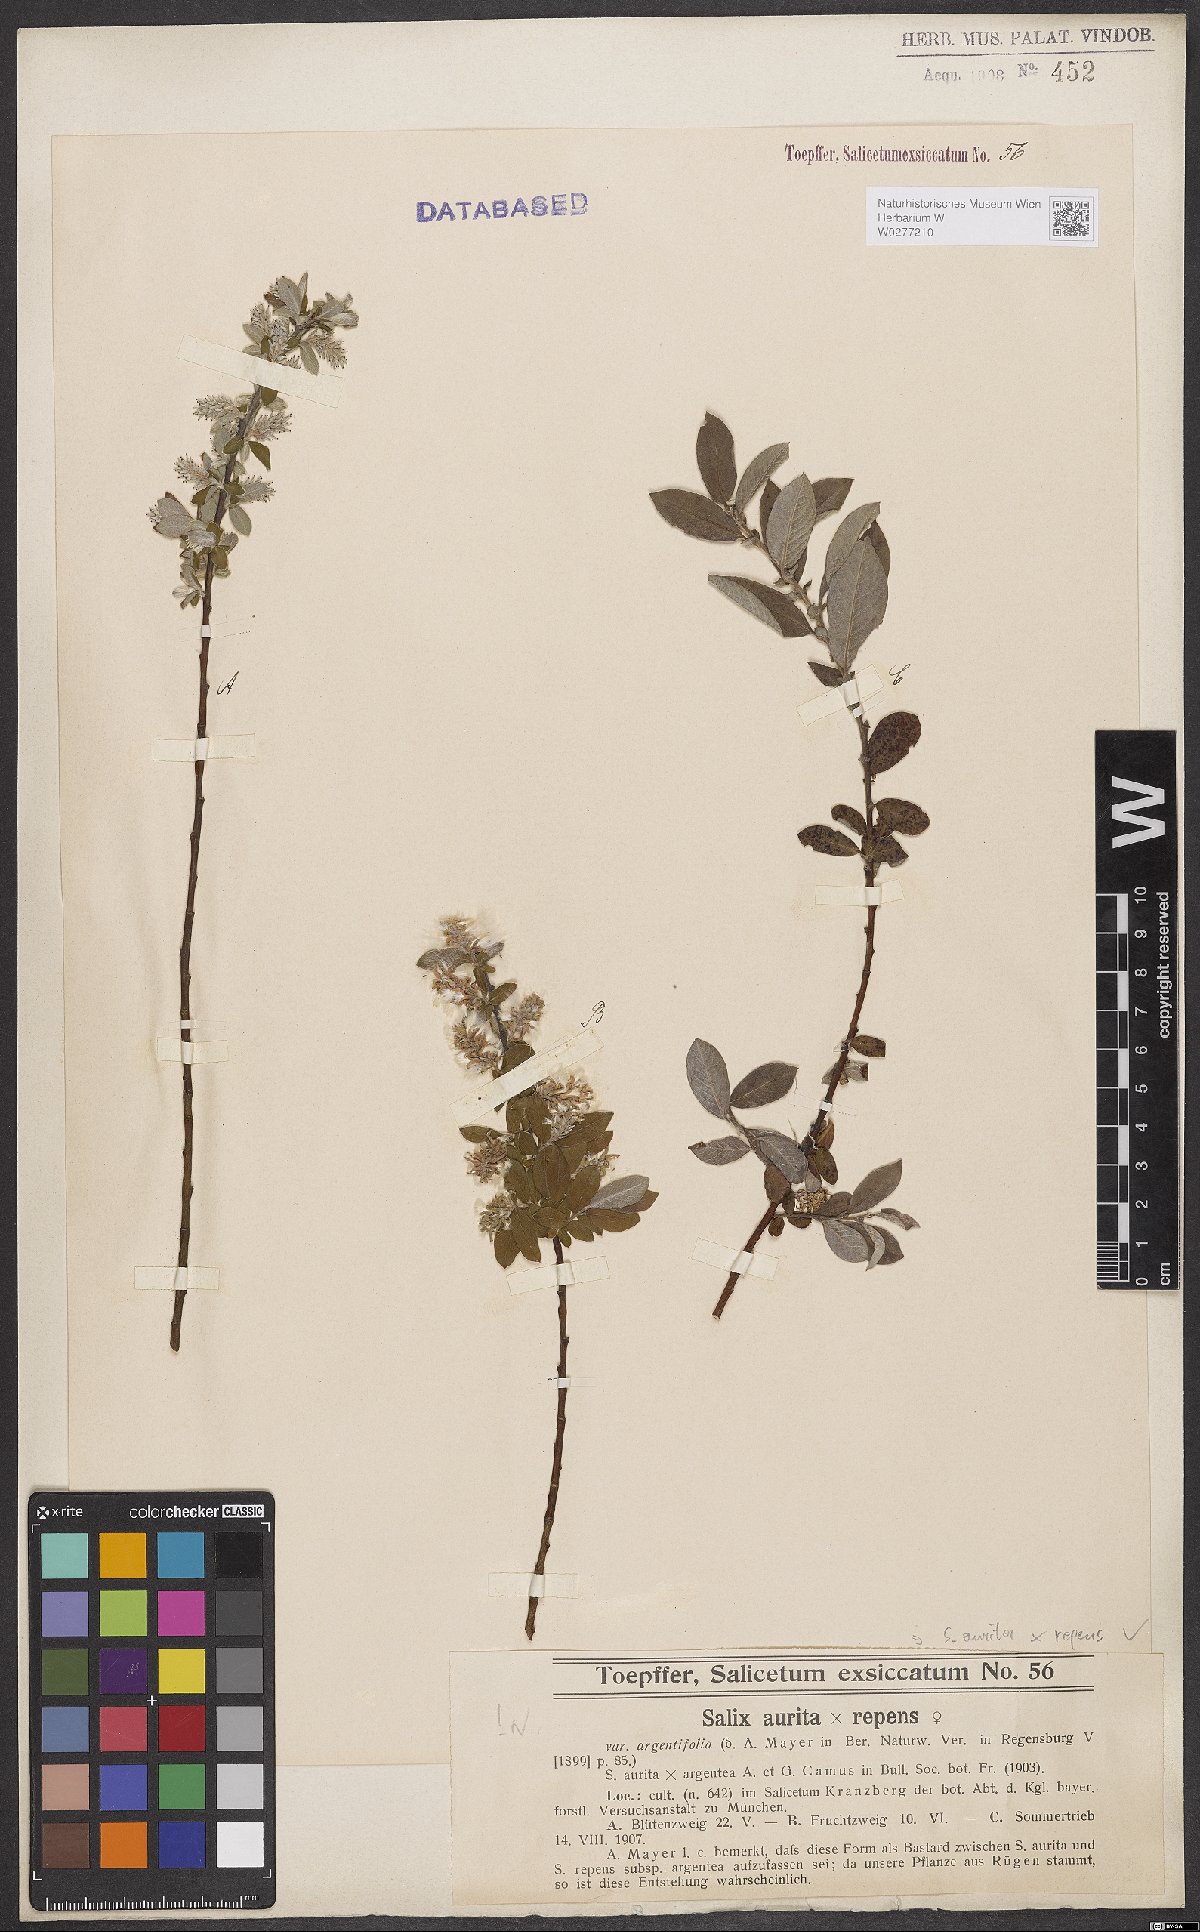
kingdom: Plantae
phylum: Tracheophyta
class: Magnoliopsida
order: Malpighiales
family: Salicaceae
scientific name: Salicaceae
